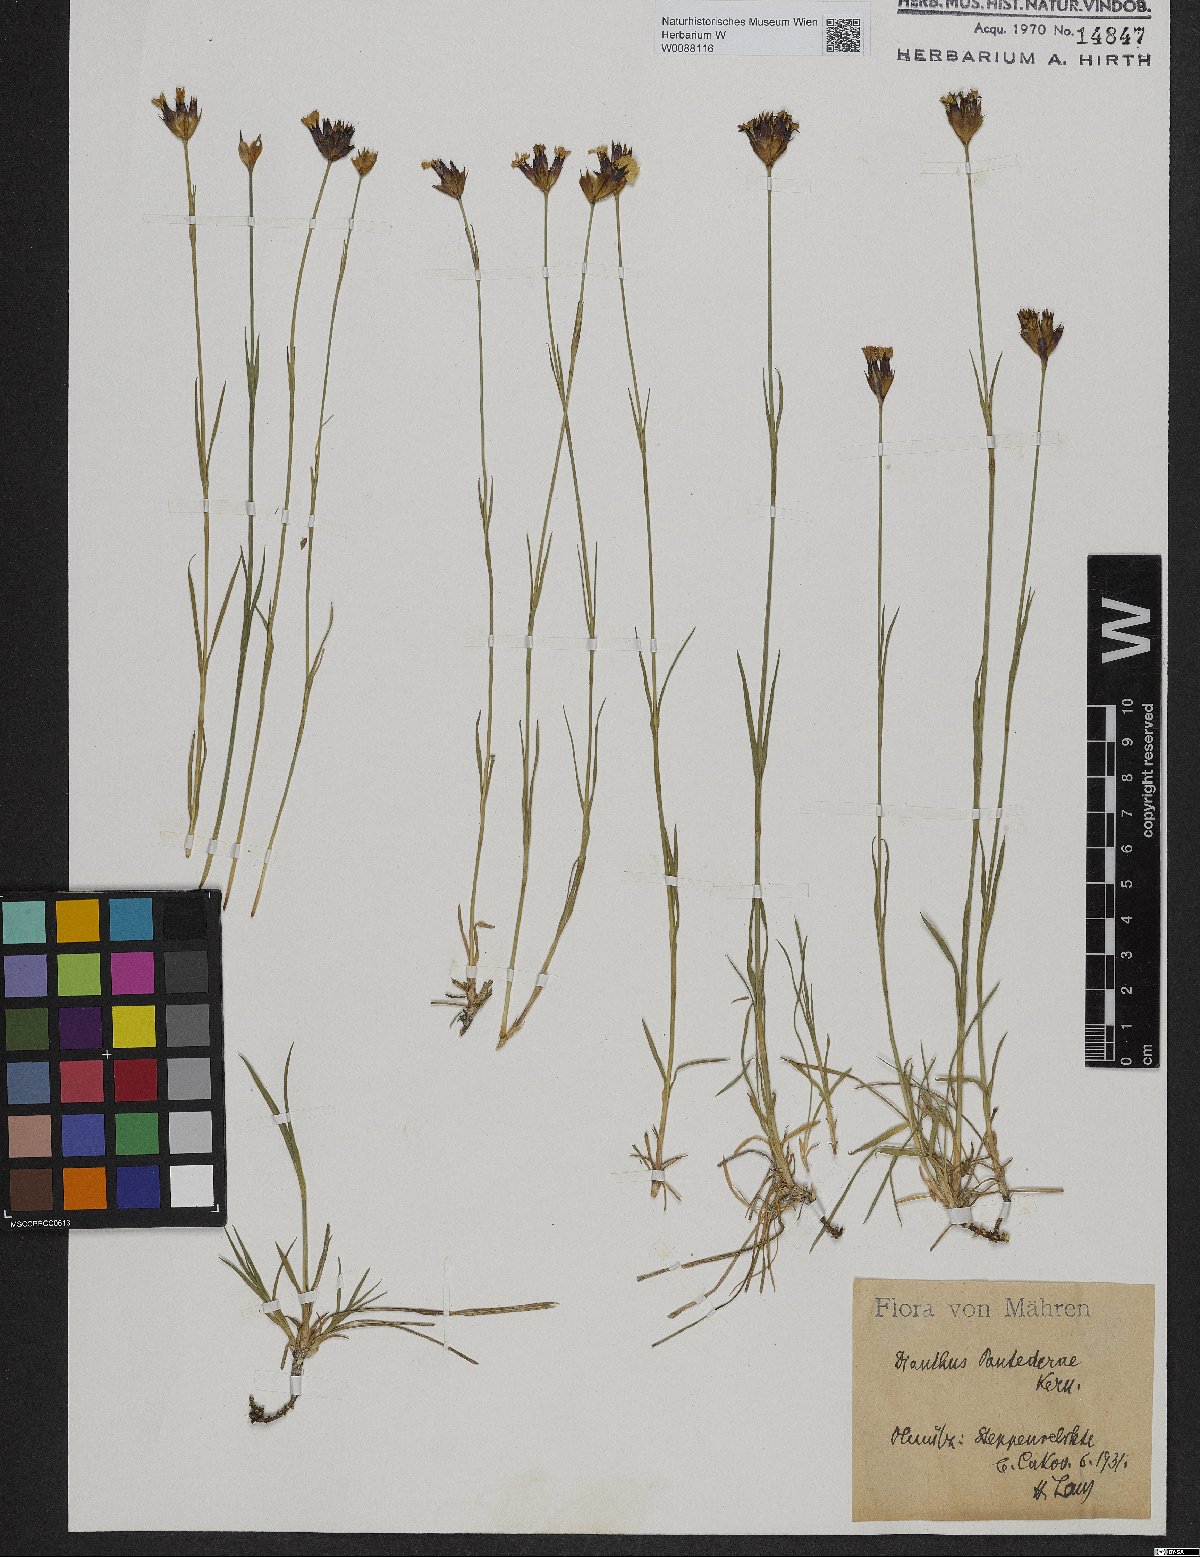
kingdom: Plantae
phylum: Tracheophyta
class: Magnoliopsida
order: Caryophyllales
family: Caryophyllaceae
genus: Dianthus
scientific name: Dianthus carthusianorum
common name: Carthusian pink
